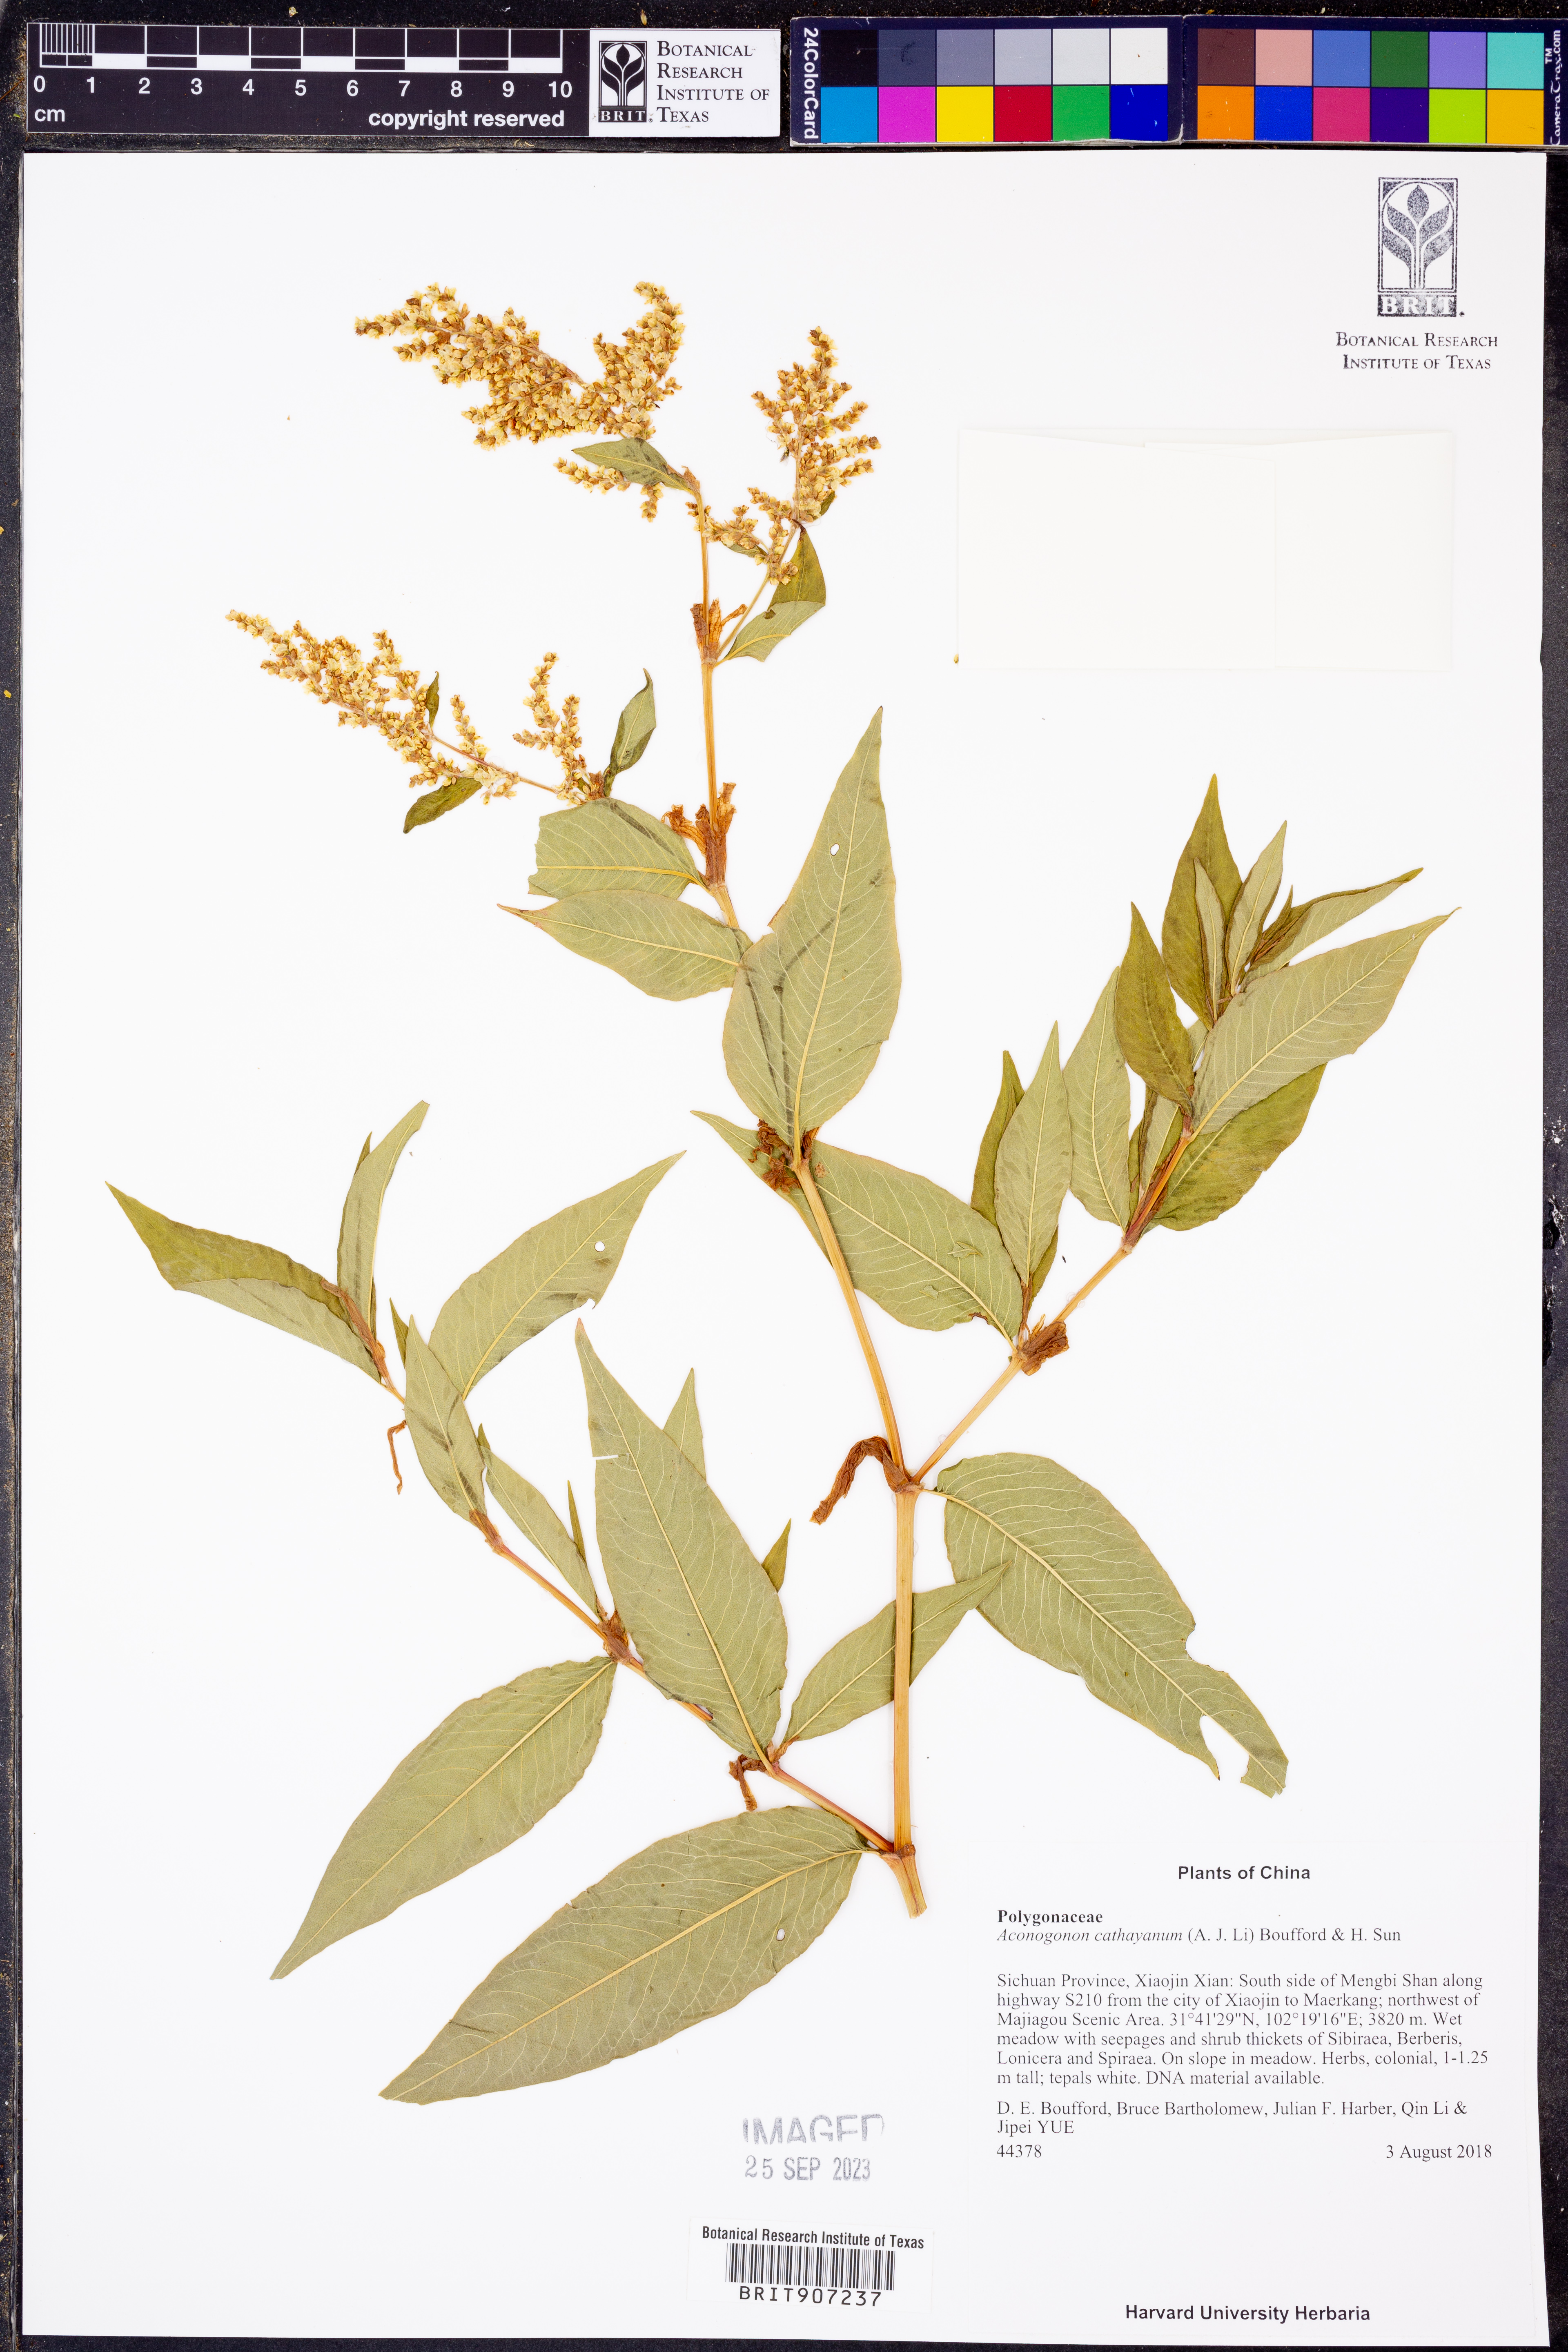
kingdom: Plantae
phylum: Tracheophyta
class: Magnoliopsida
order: Caryophyllales
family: Polygonaceae
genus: Koenigia
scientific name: Koenigia cathayana
